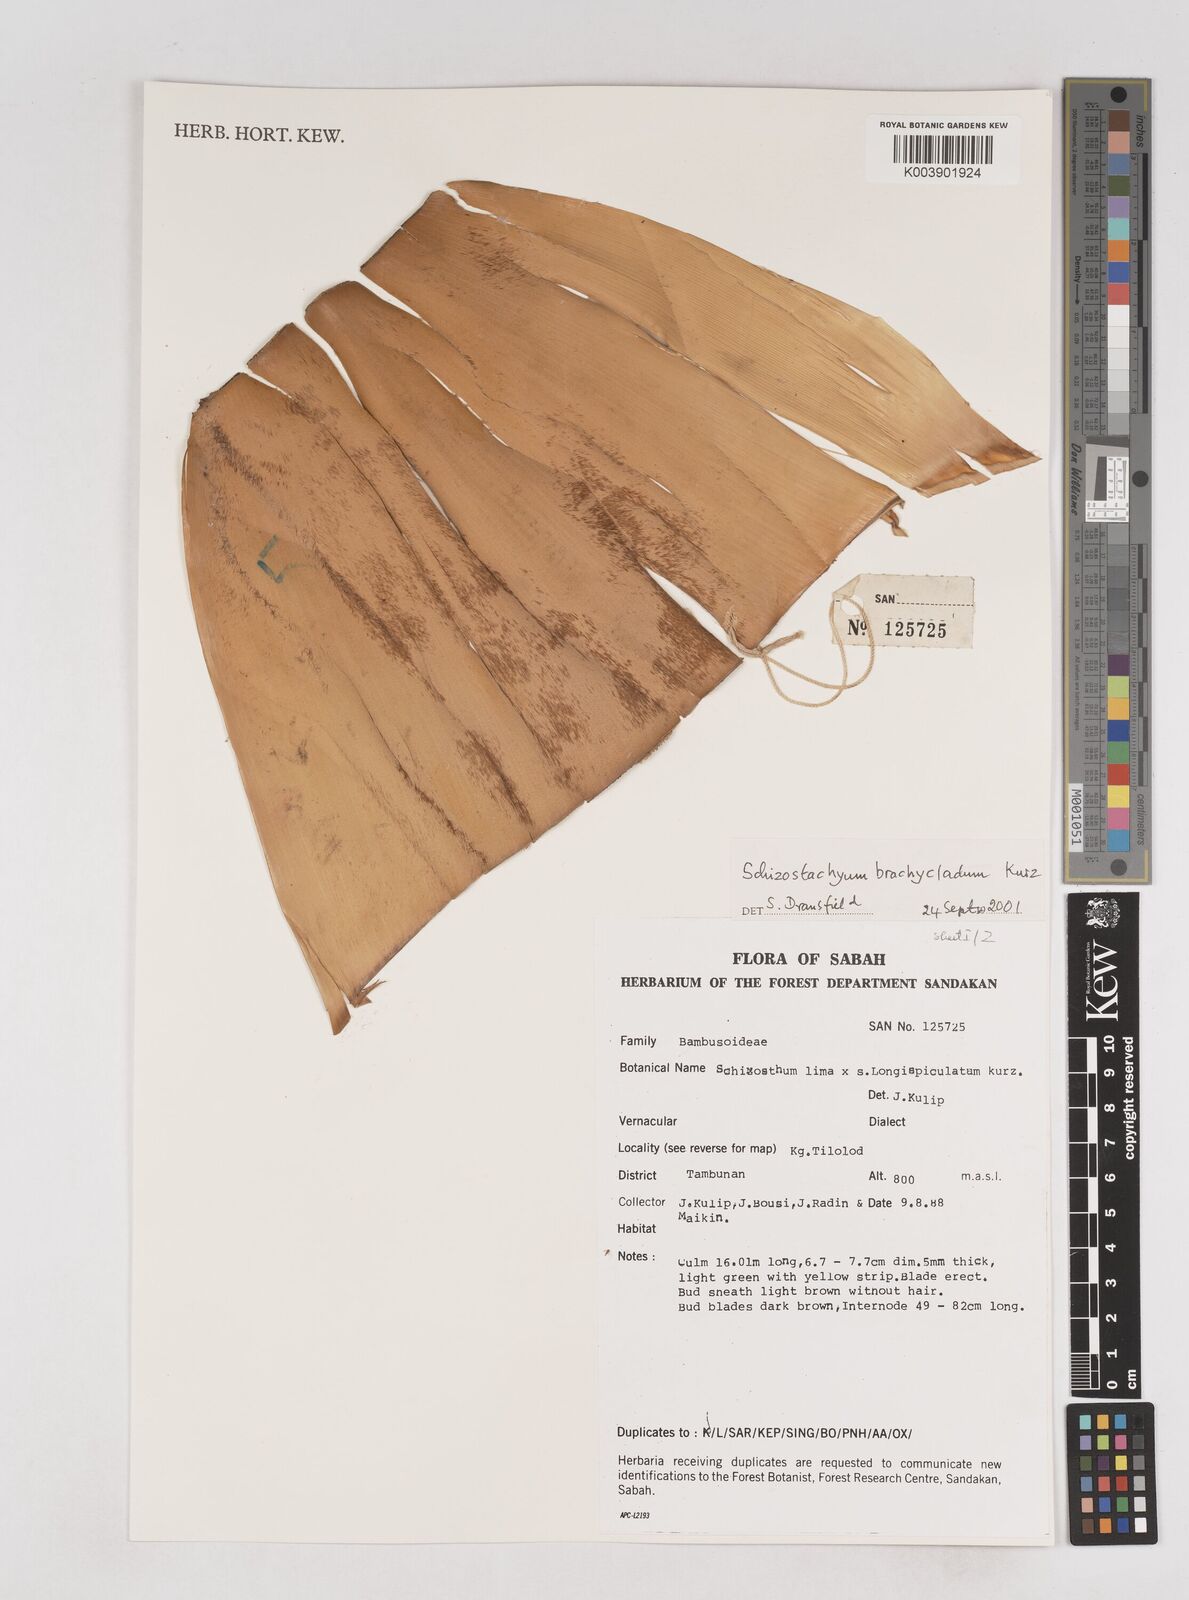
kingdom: Plantae
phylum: Tracheophyta
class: Liliopsida
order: Poales
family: Poaceae
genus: Schizostachyum
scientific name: Schizostachyum brachycladum
